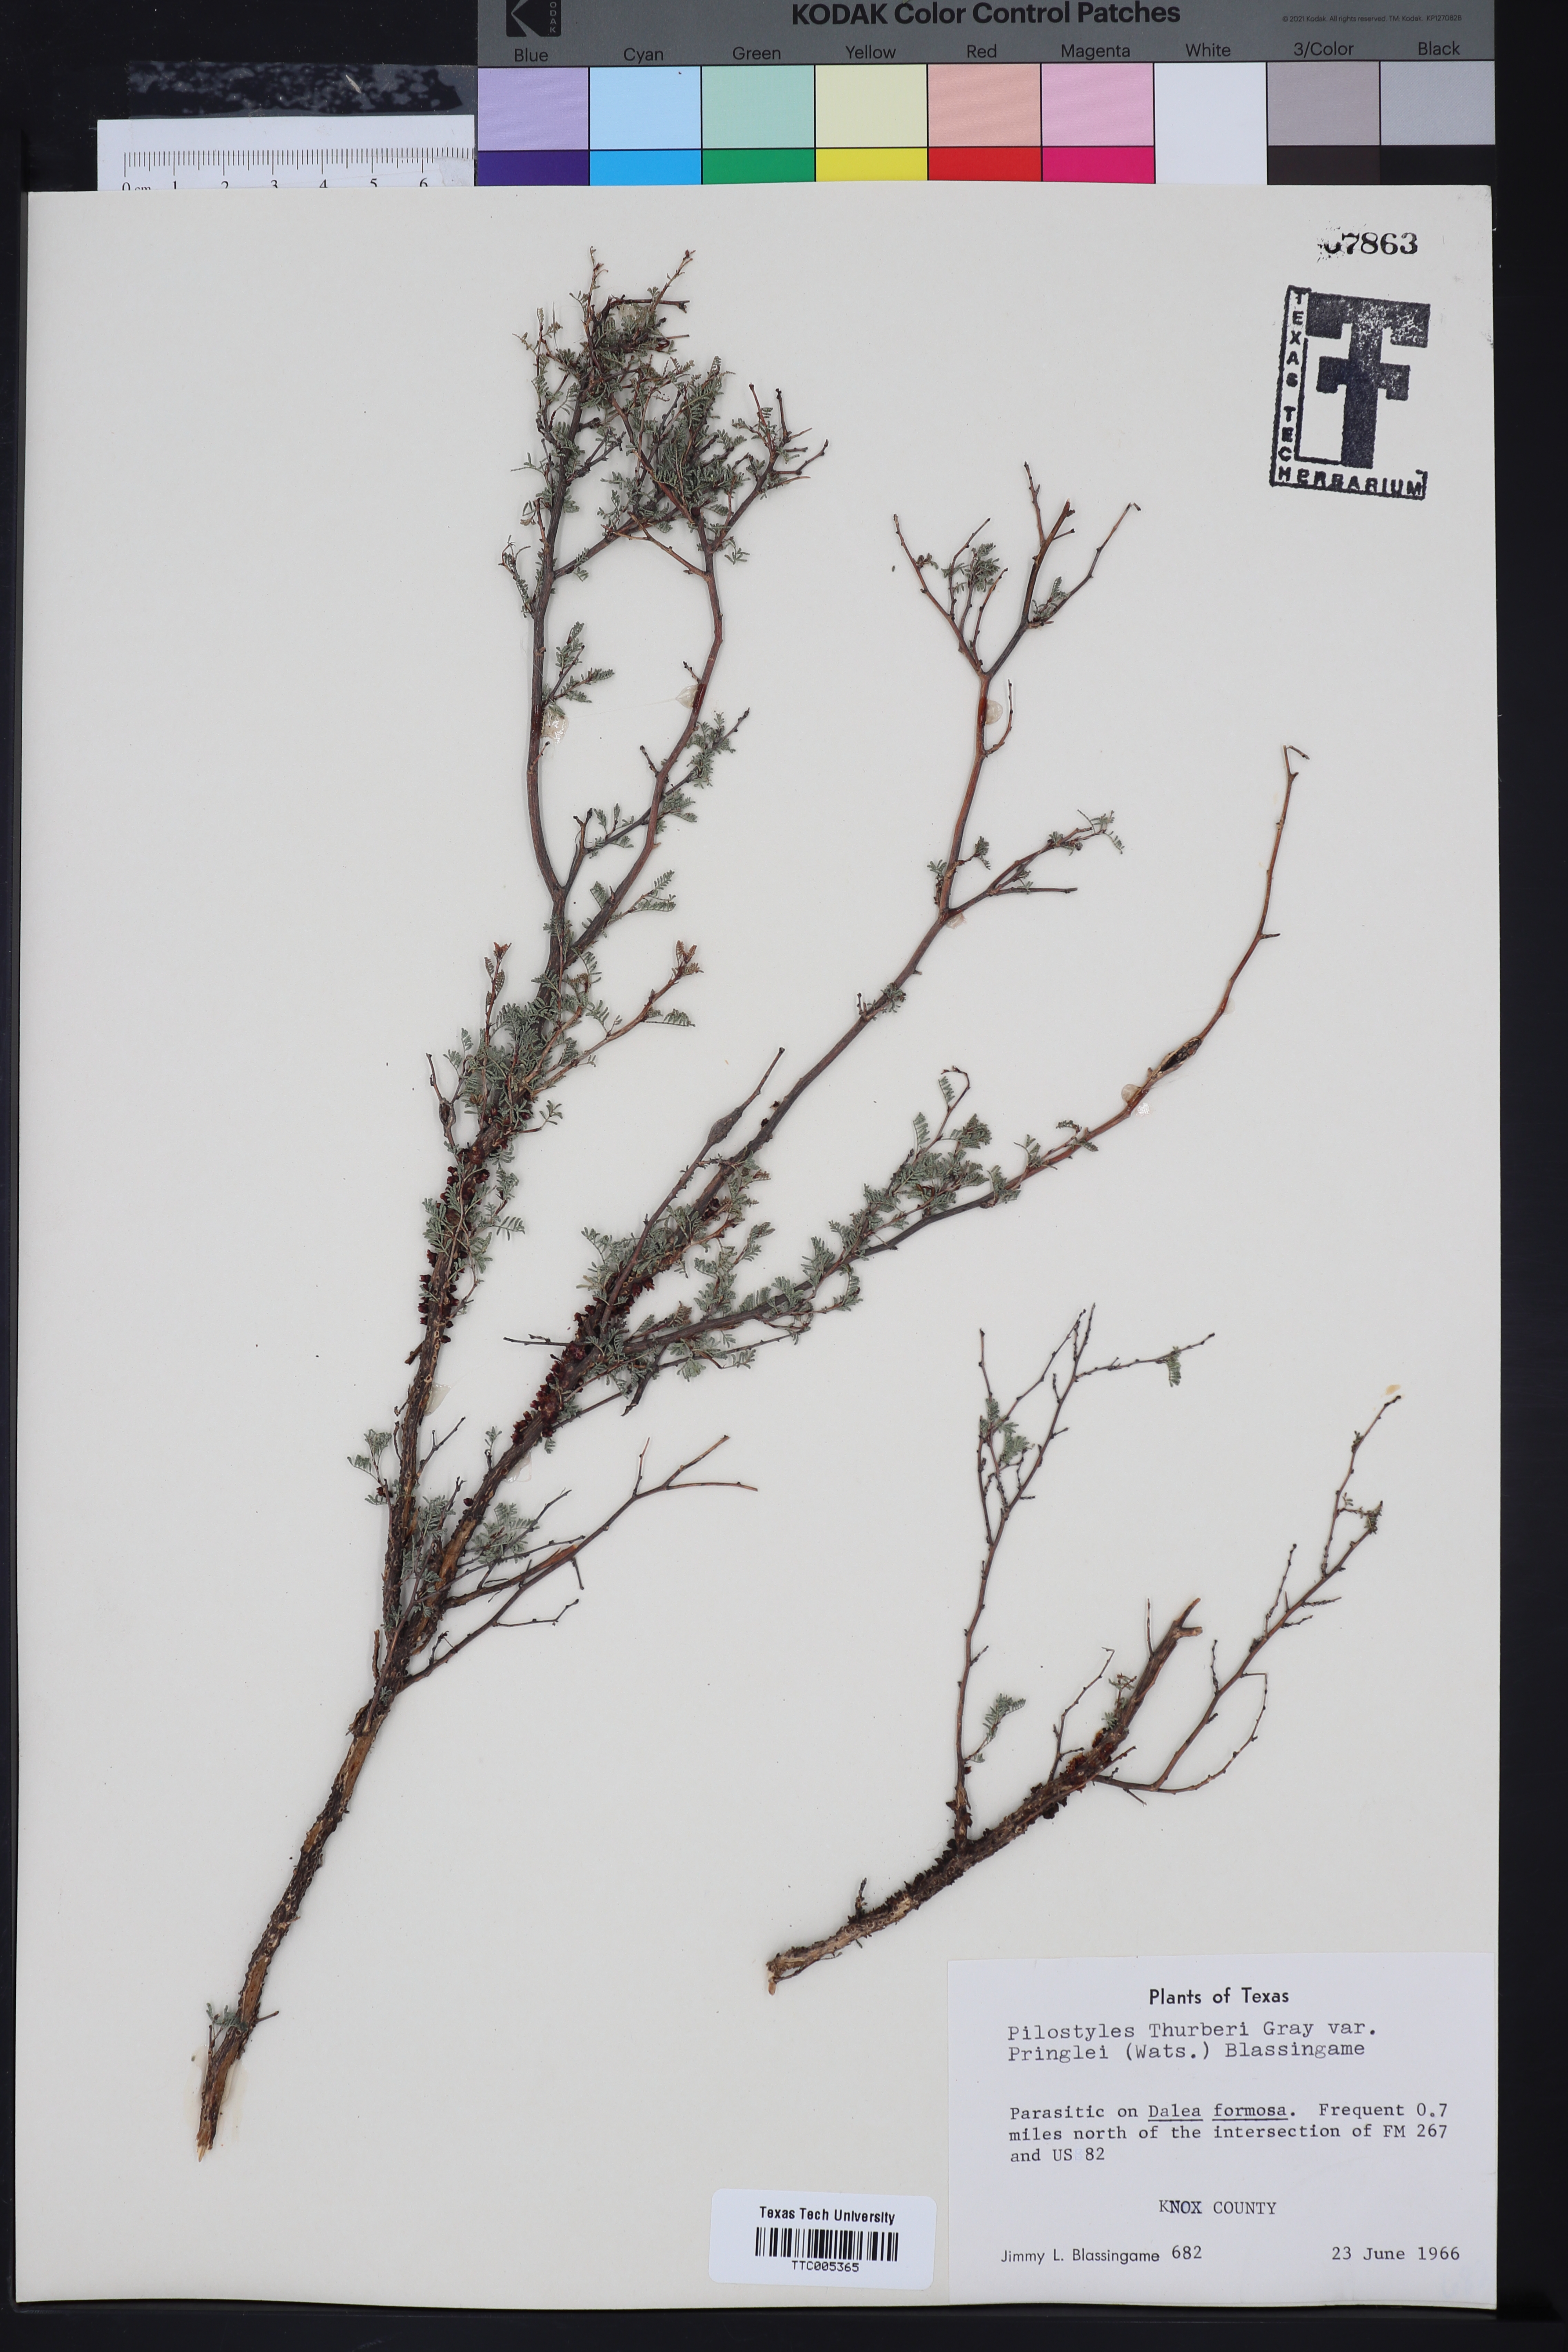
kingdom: Plantae
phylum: Tracheophyta
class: Magnoliopsida
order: Cucurbitales
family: Apodanthaceae
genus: Pilostyles
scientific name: Pilostyles thurberi
